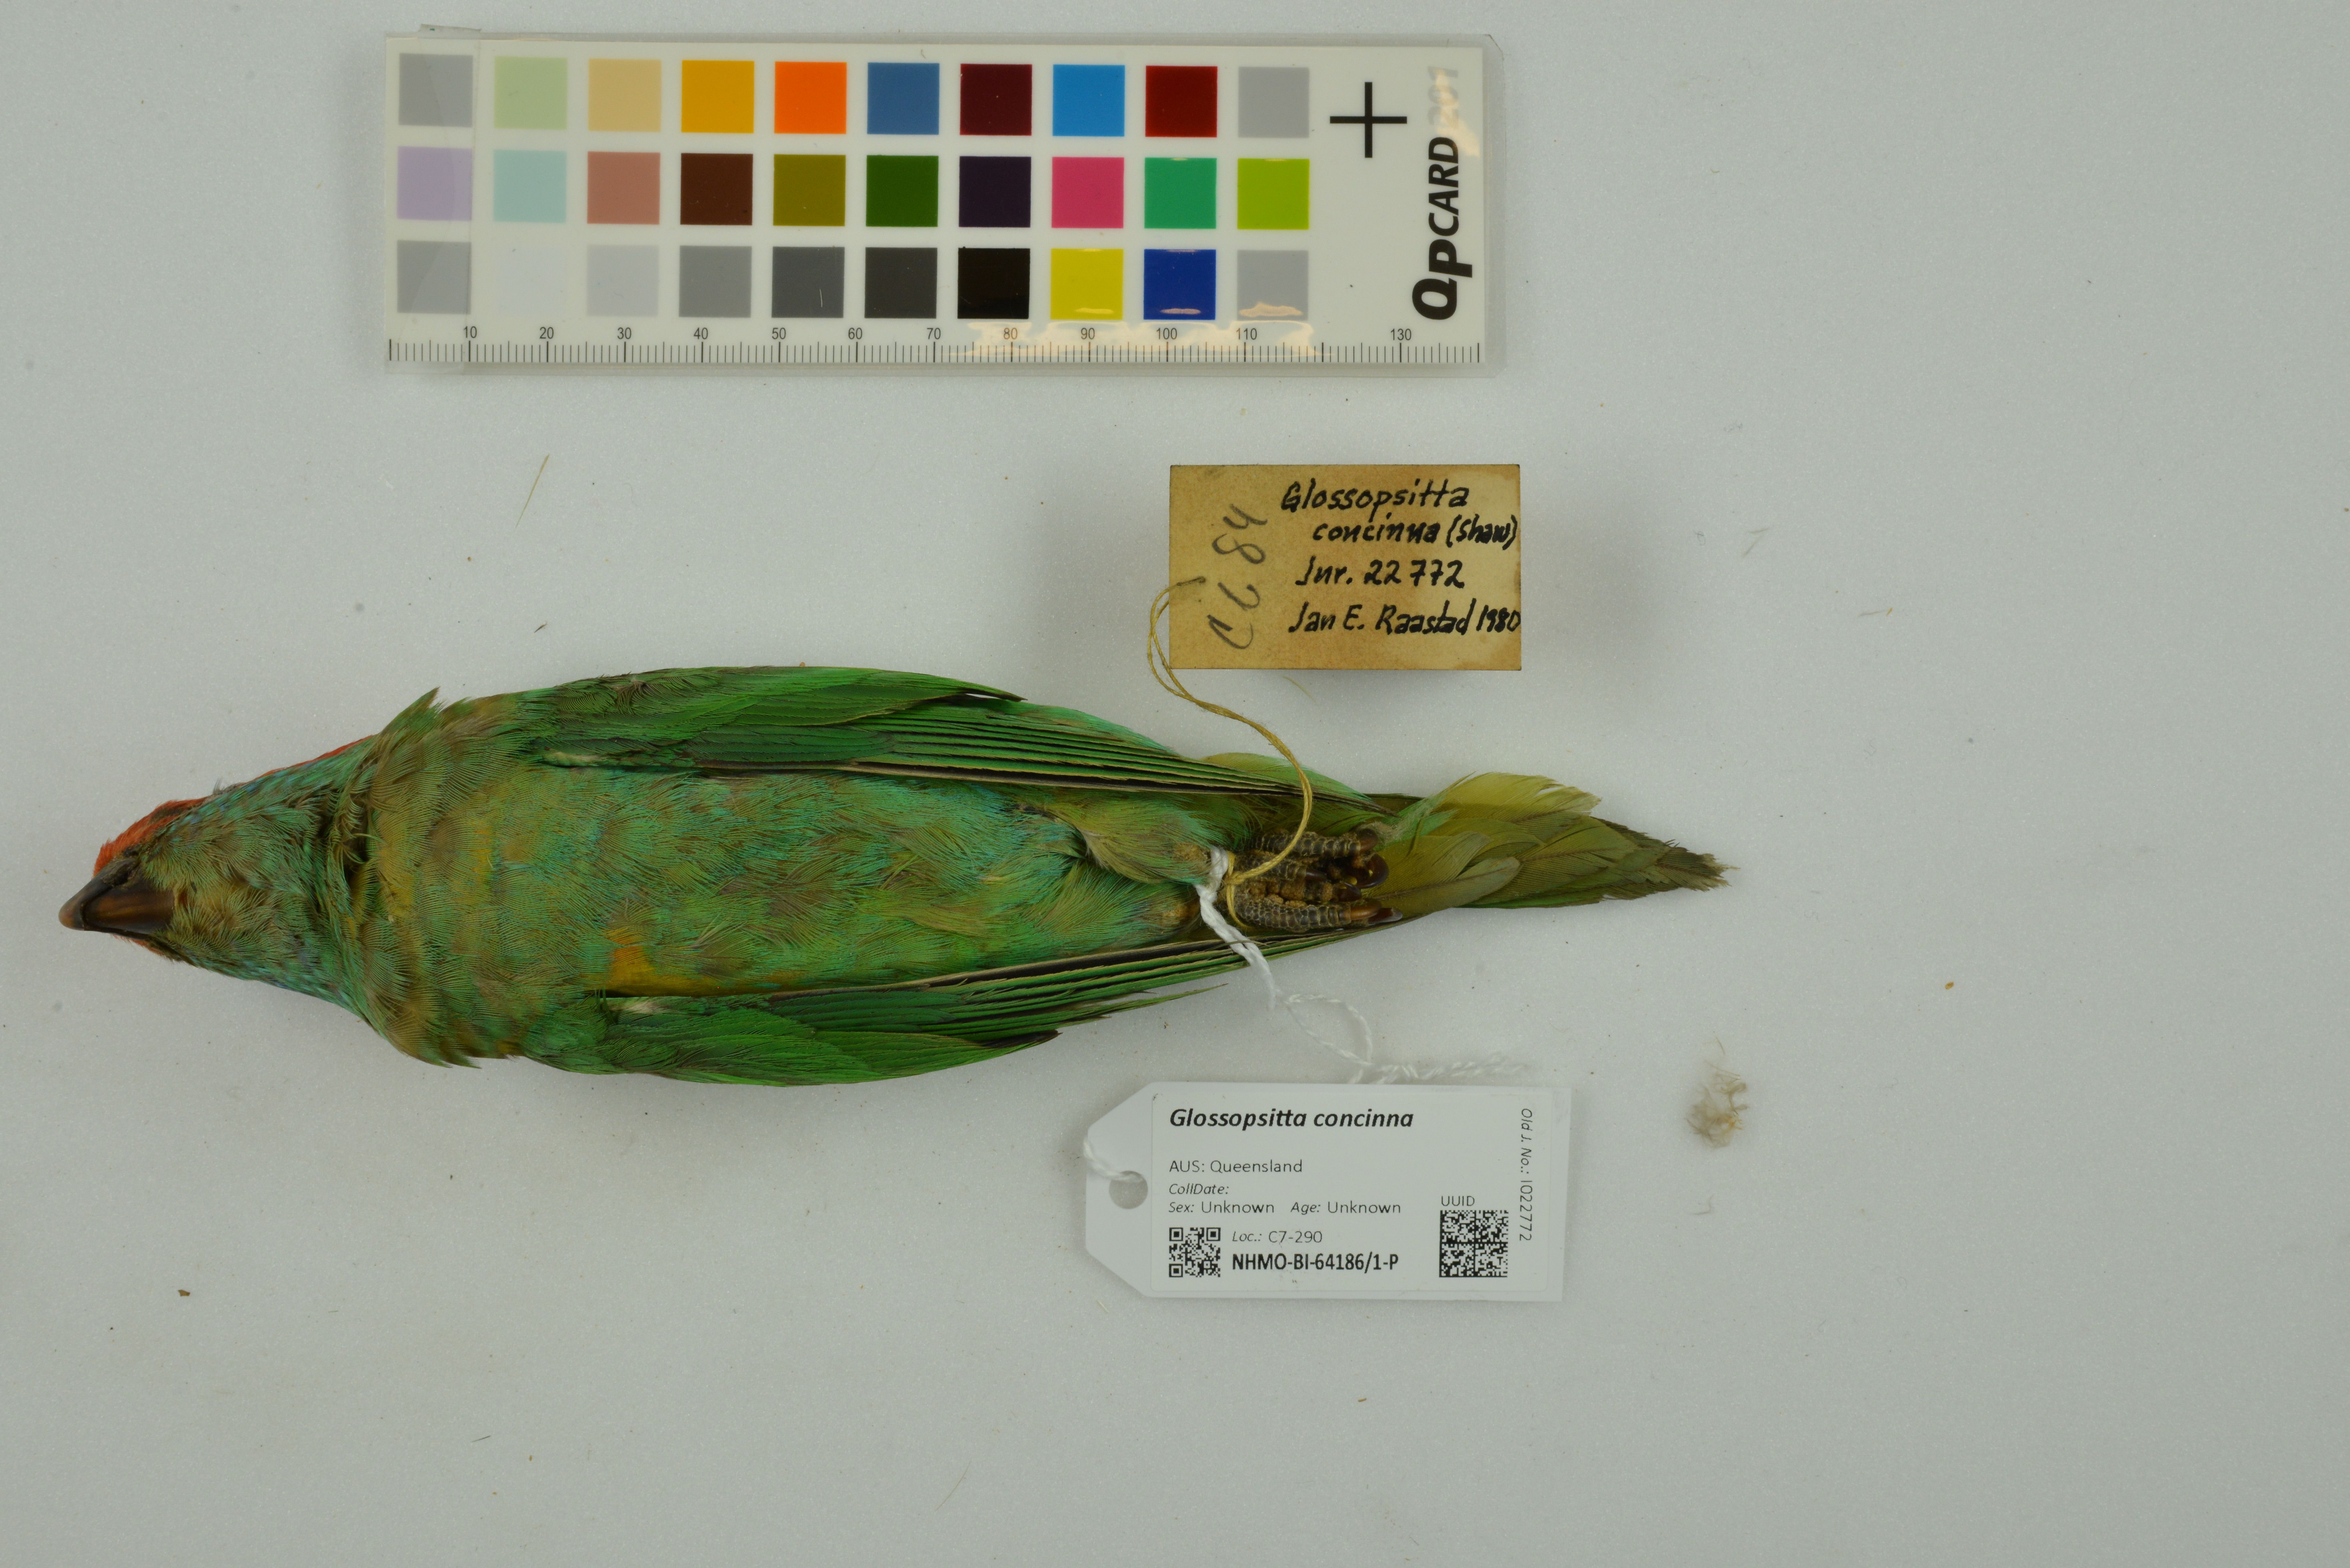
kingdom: Animalia
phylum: Chordata
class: Aves
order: Psittaciformes
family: Psittacidae
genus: Glossopsitta
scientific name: Glossopsitta concinna
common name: Musk lorikeet
